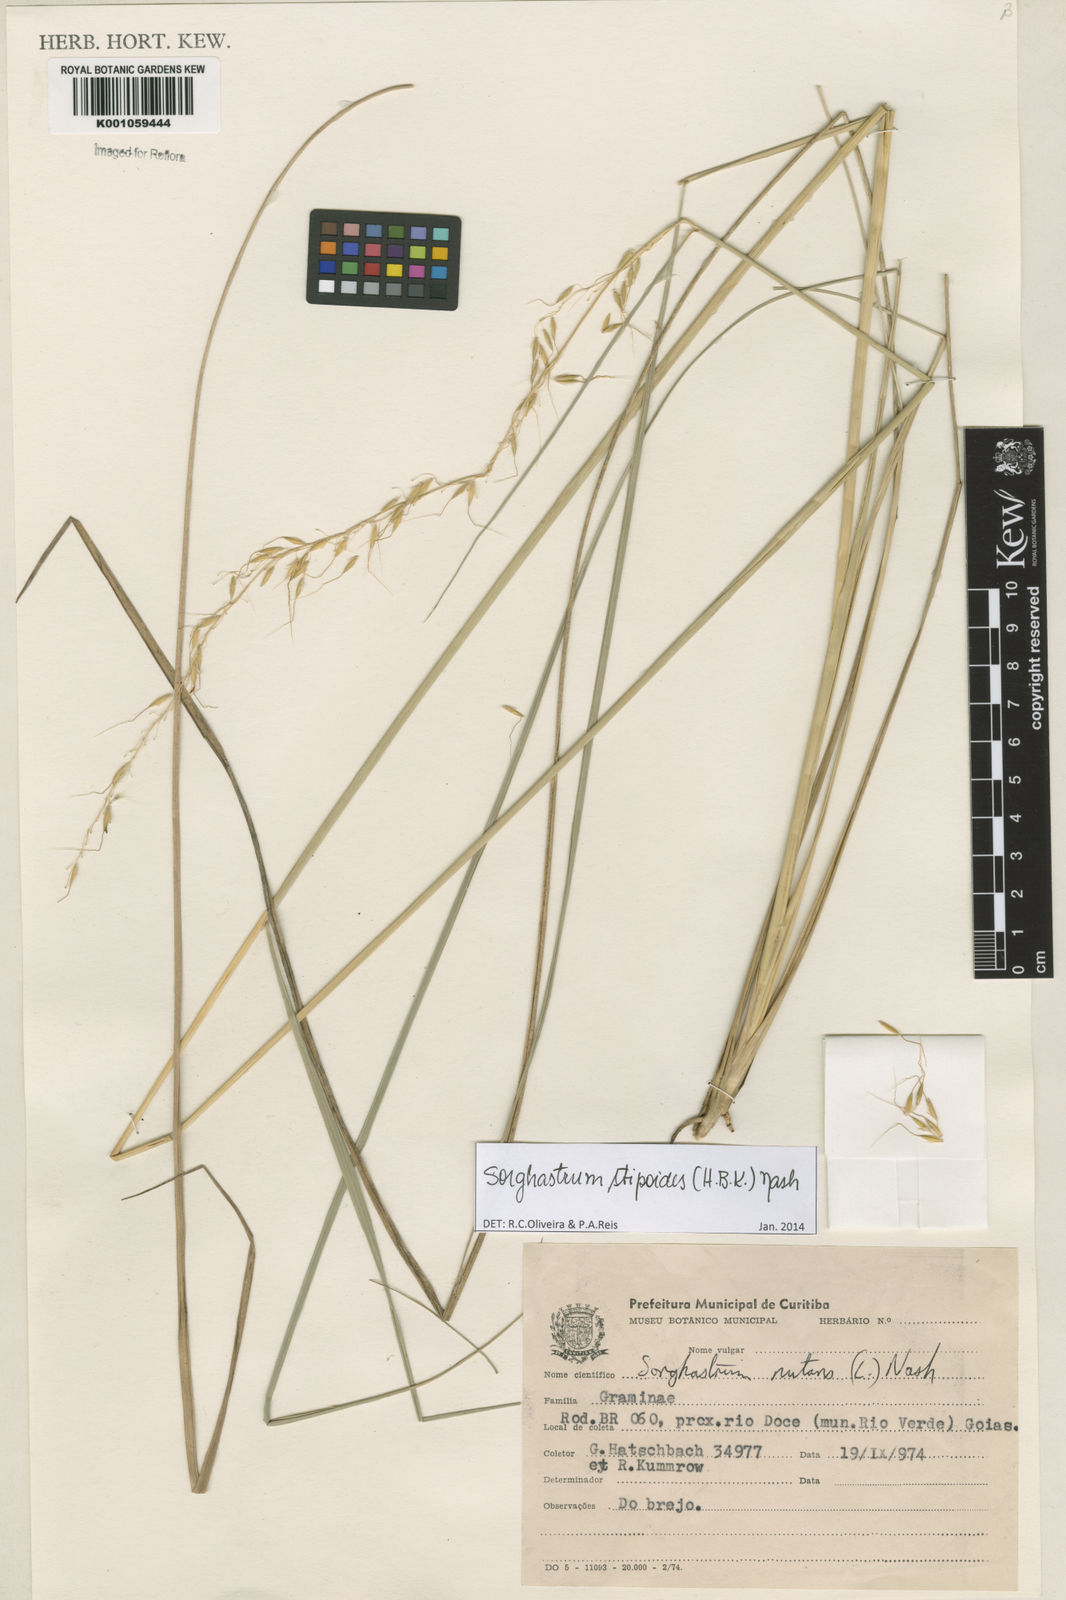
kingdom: Plantae
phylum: Tracheophyta
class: Liliopsida
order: Poales
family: Poaceae
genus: Sorghastrum
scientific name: Sorghastrum stipoides
